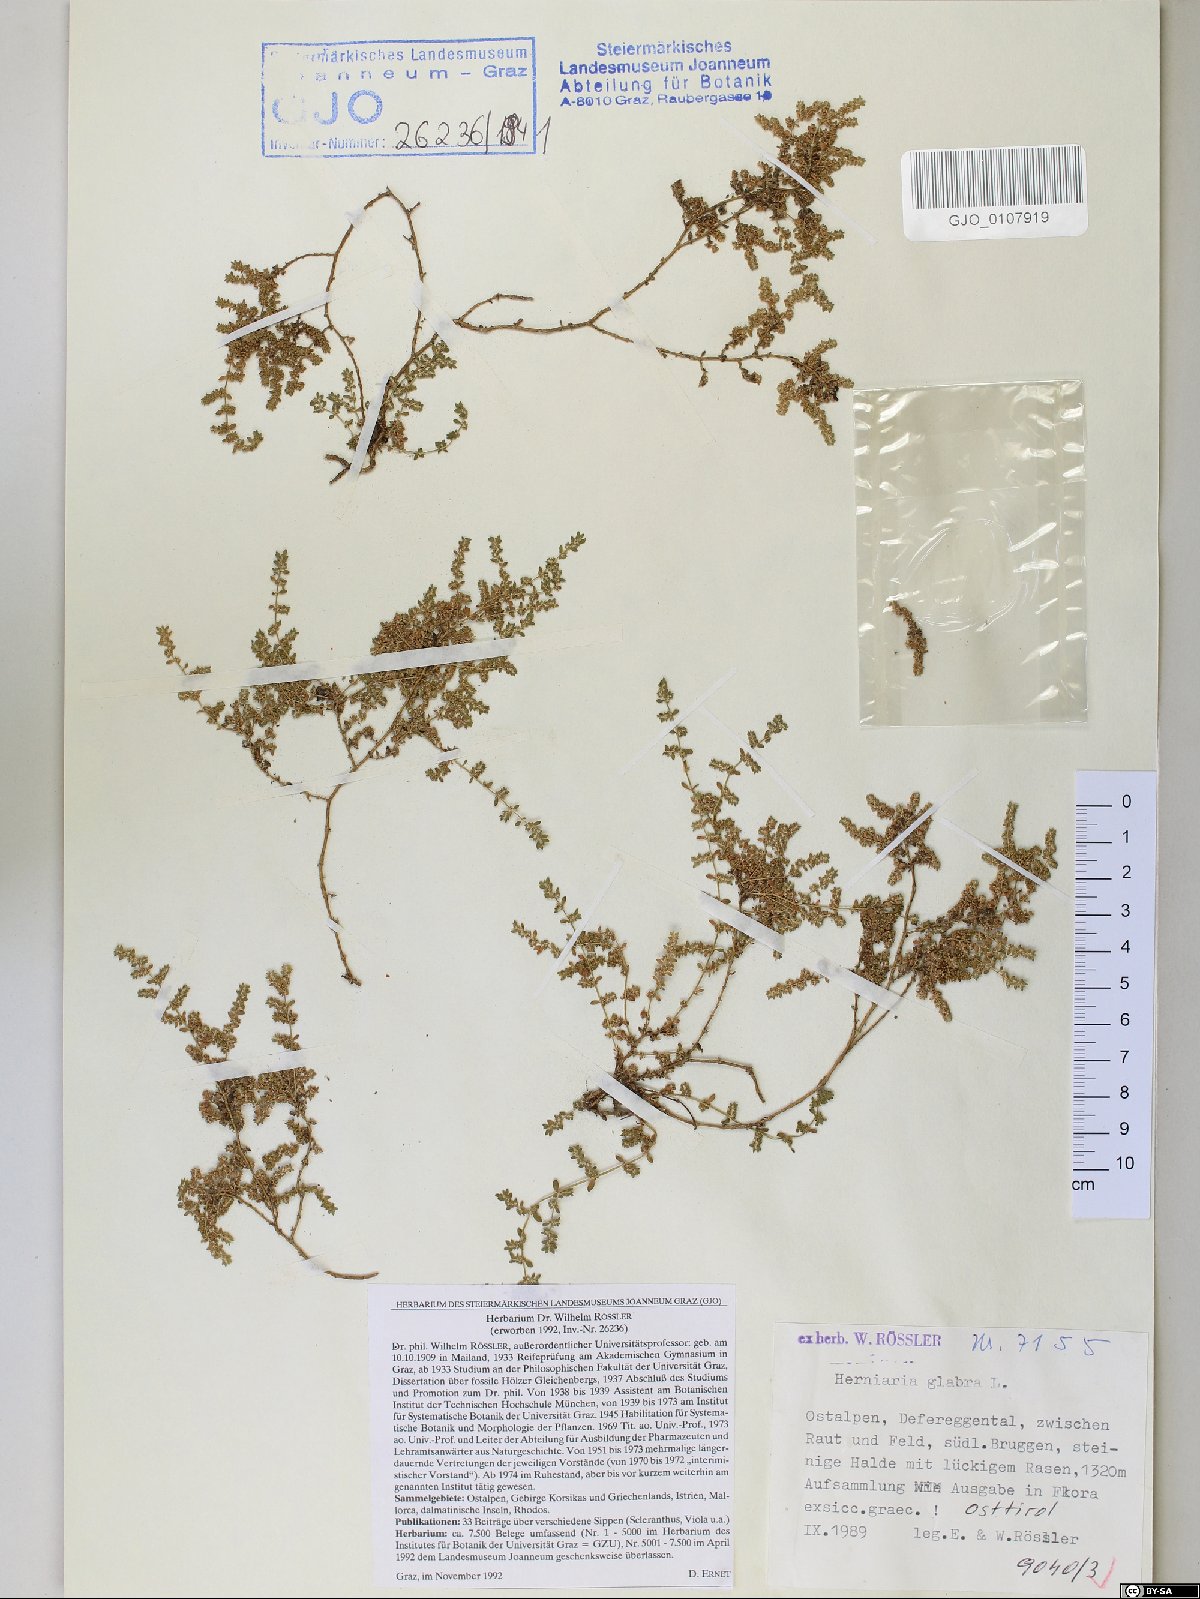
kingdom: Plantae
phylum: Tracheophyta
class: Magnoliopsida
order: Caryophyllales
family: Caryophyllaceae
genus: Herniaria
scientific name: Herniaria glabra
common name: Smooth rupturewort
